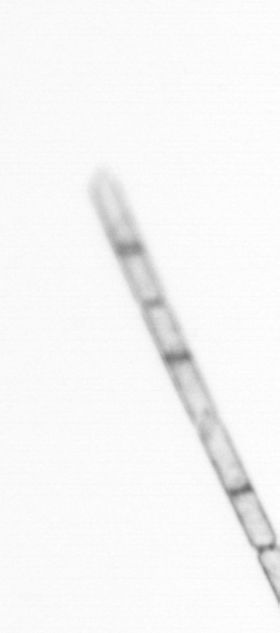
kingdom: Chromista
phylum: Ochrophyta
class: Bacillariophyceae
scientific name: Bacillariophyceae
